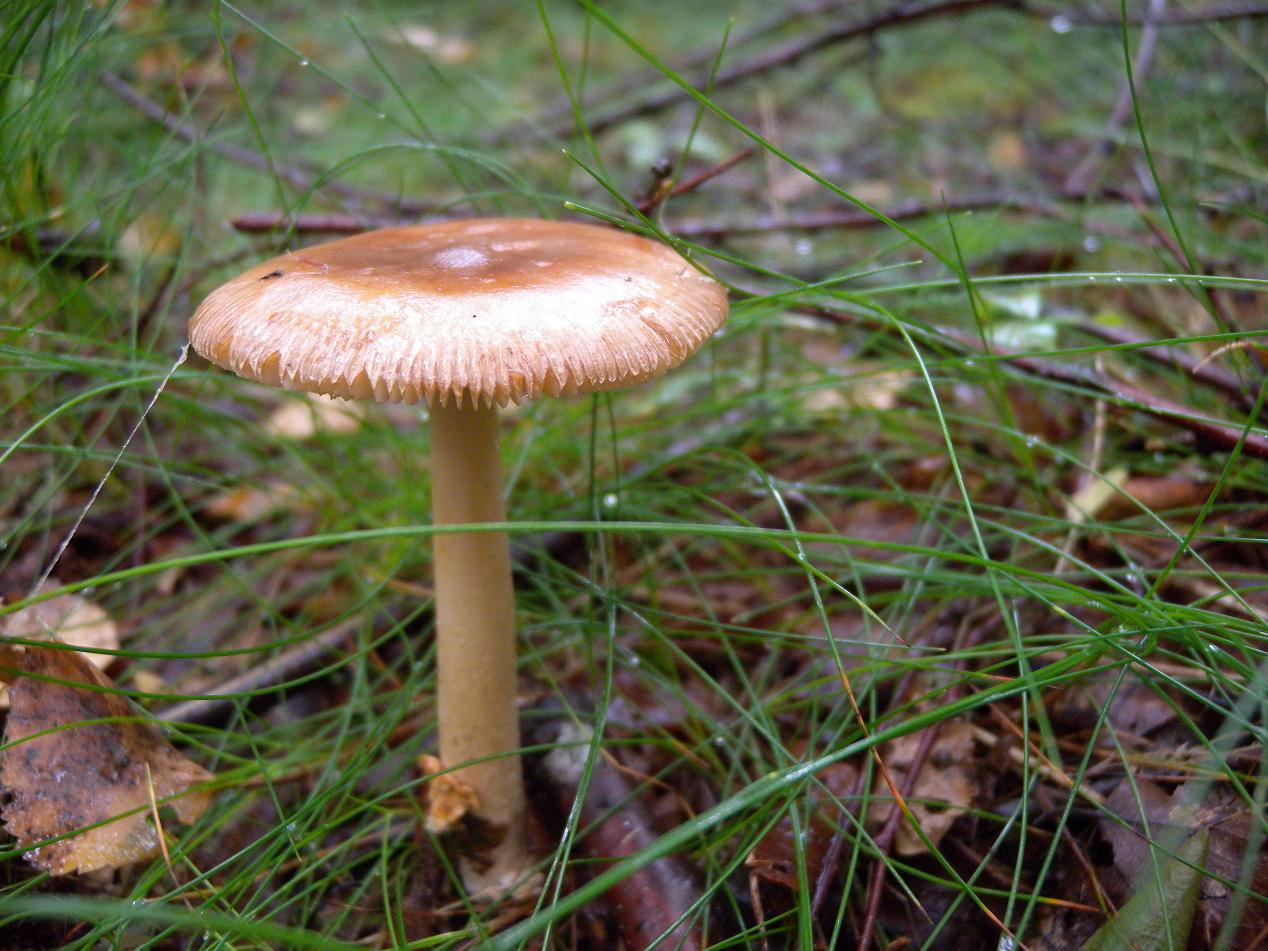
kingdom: Fungi
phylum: Basidiomycota
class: Agaricomycetes
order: Agaricales
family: Amanitaceae
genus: Amanita
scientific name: Amanita fulva
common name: brun kam-fluesvamp
